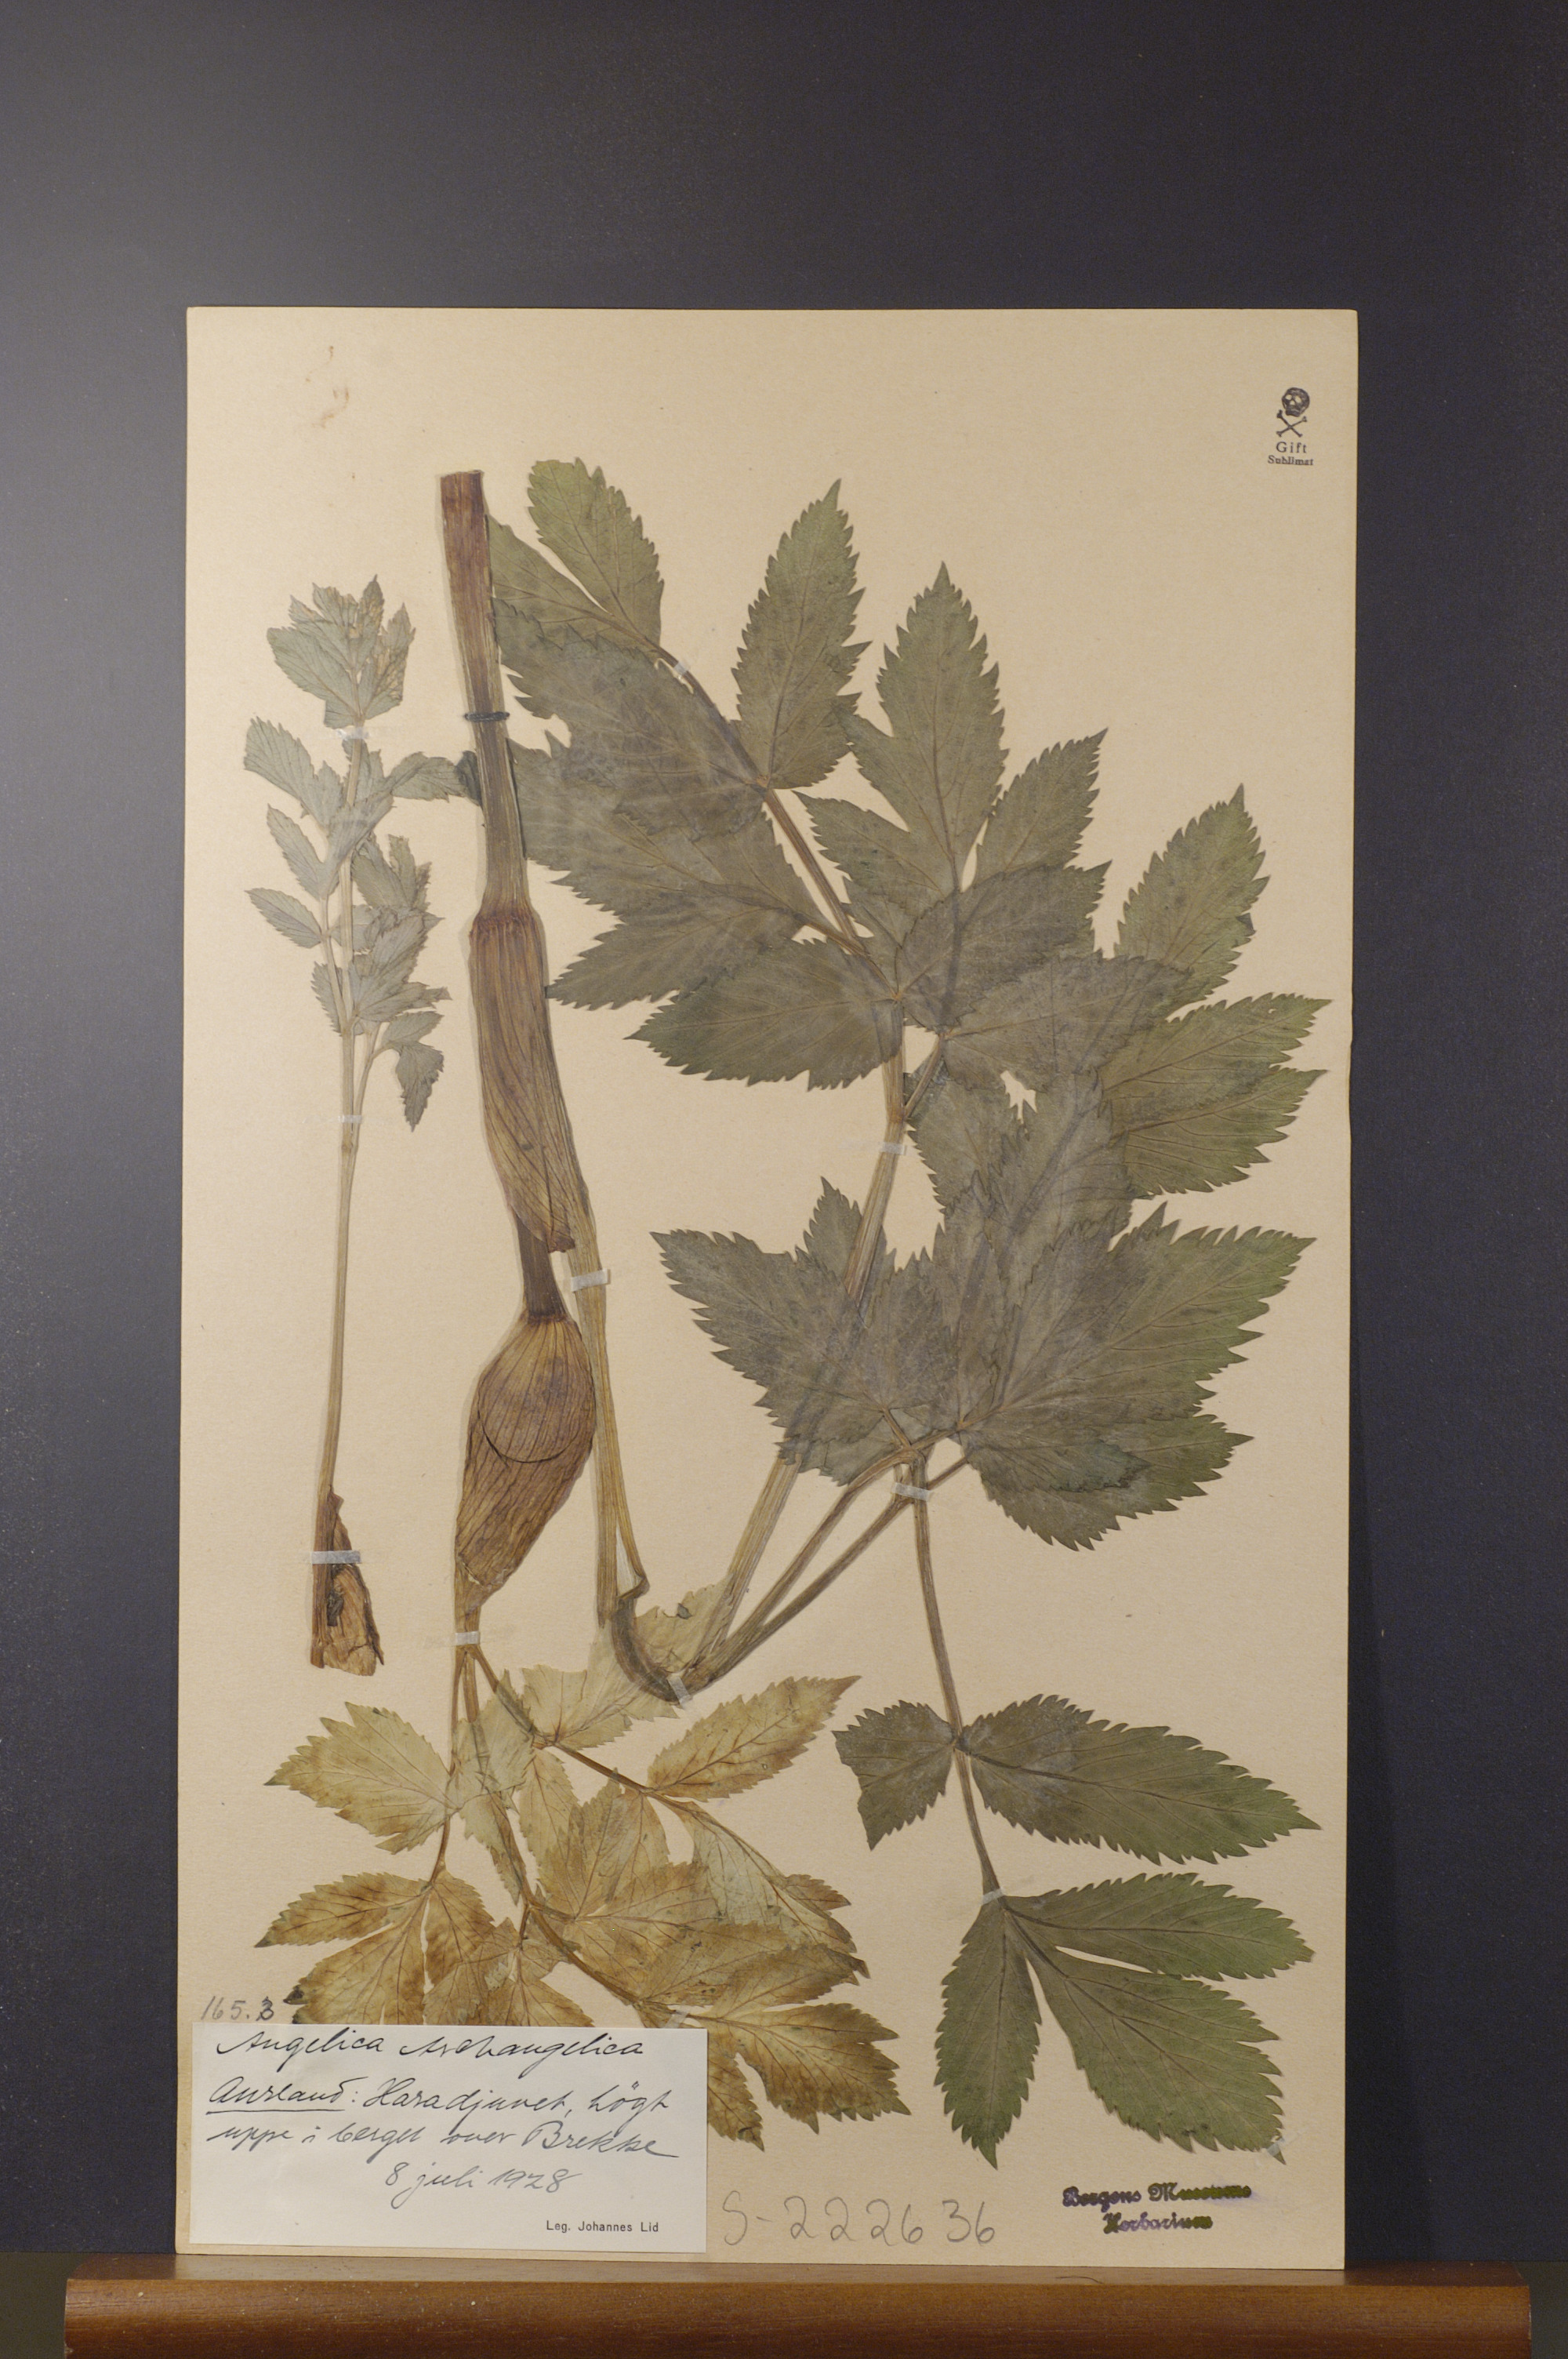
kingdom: Plantae
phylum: Tracheophyta
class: Magnoliopsida
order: Apiales
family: Apiaceae
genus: Angelica
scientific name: Angelica archangelica
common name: Garden angelica
